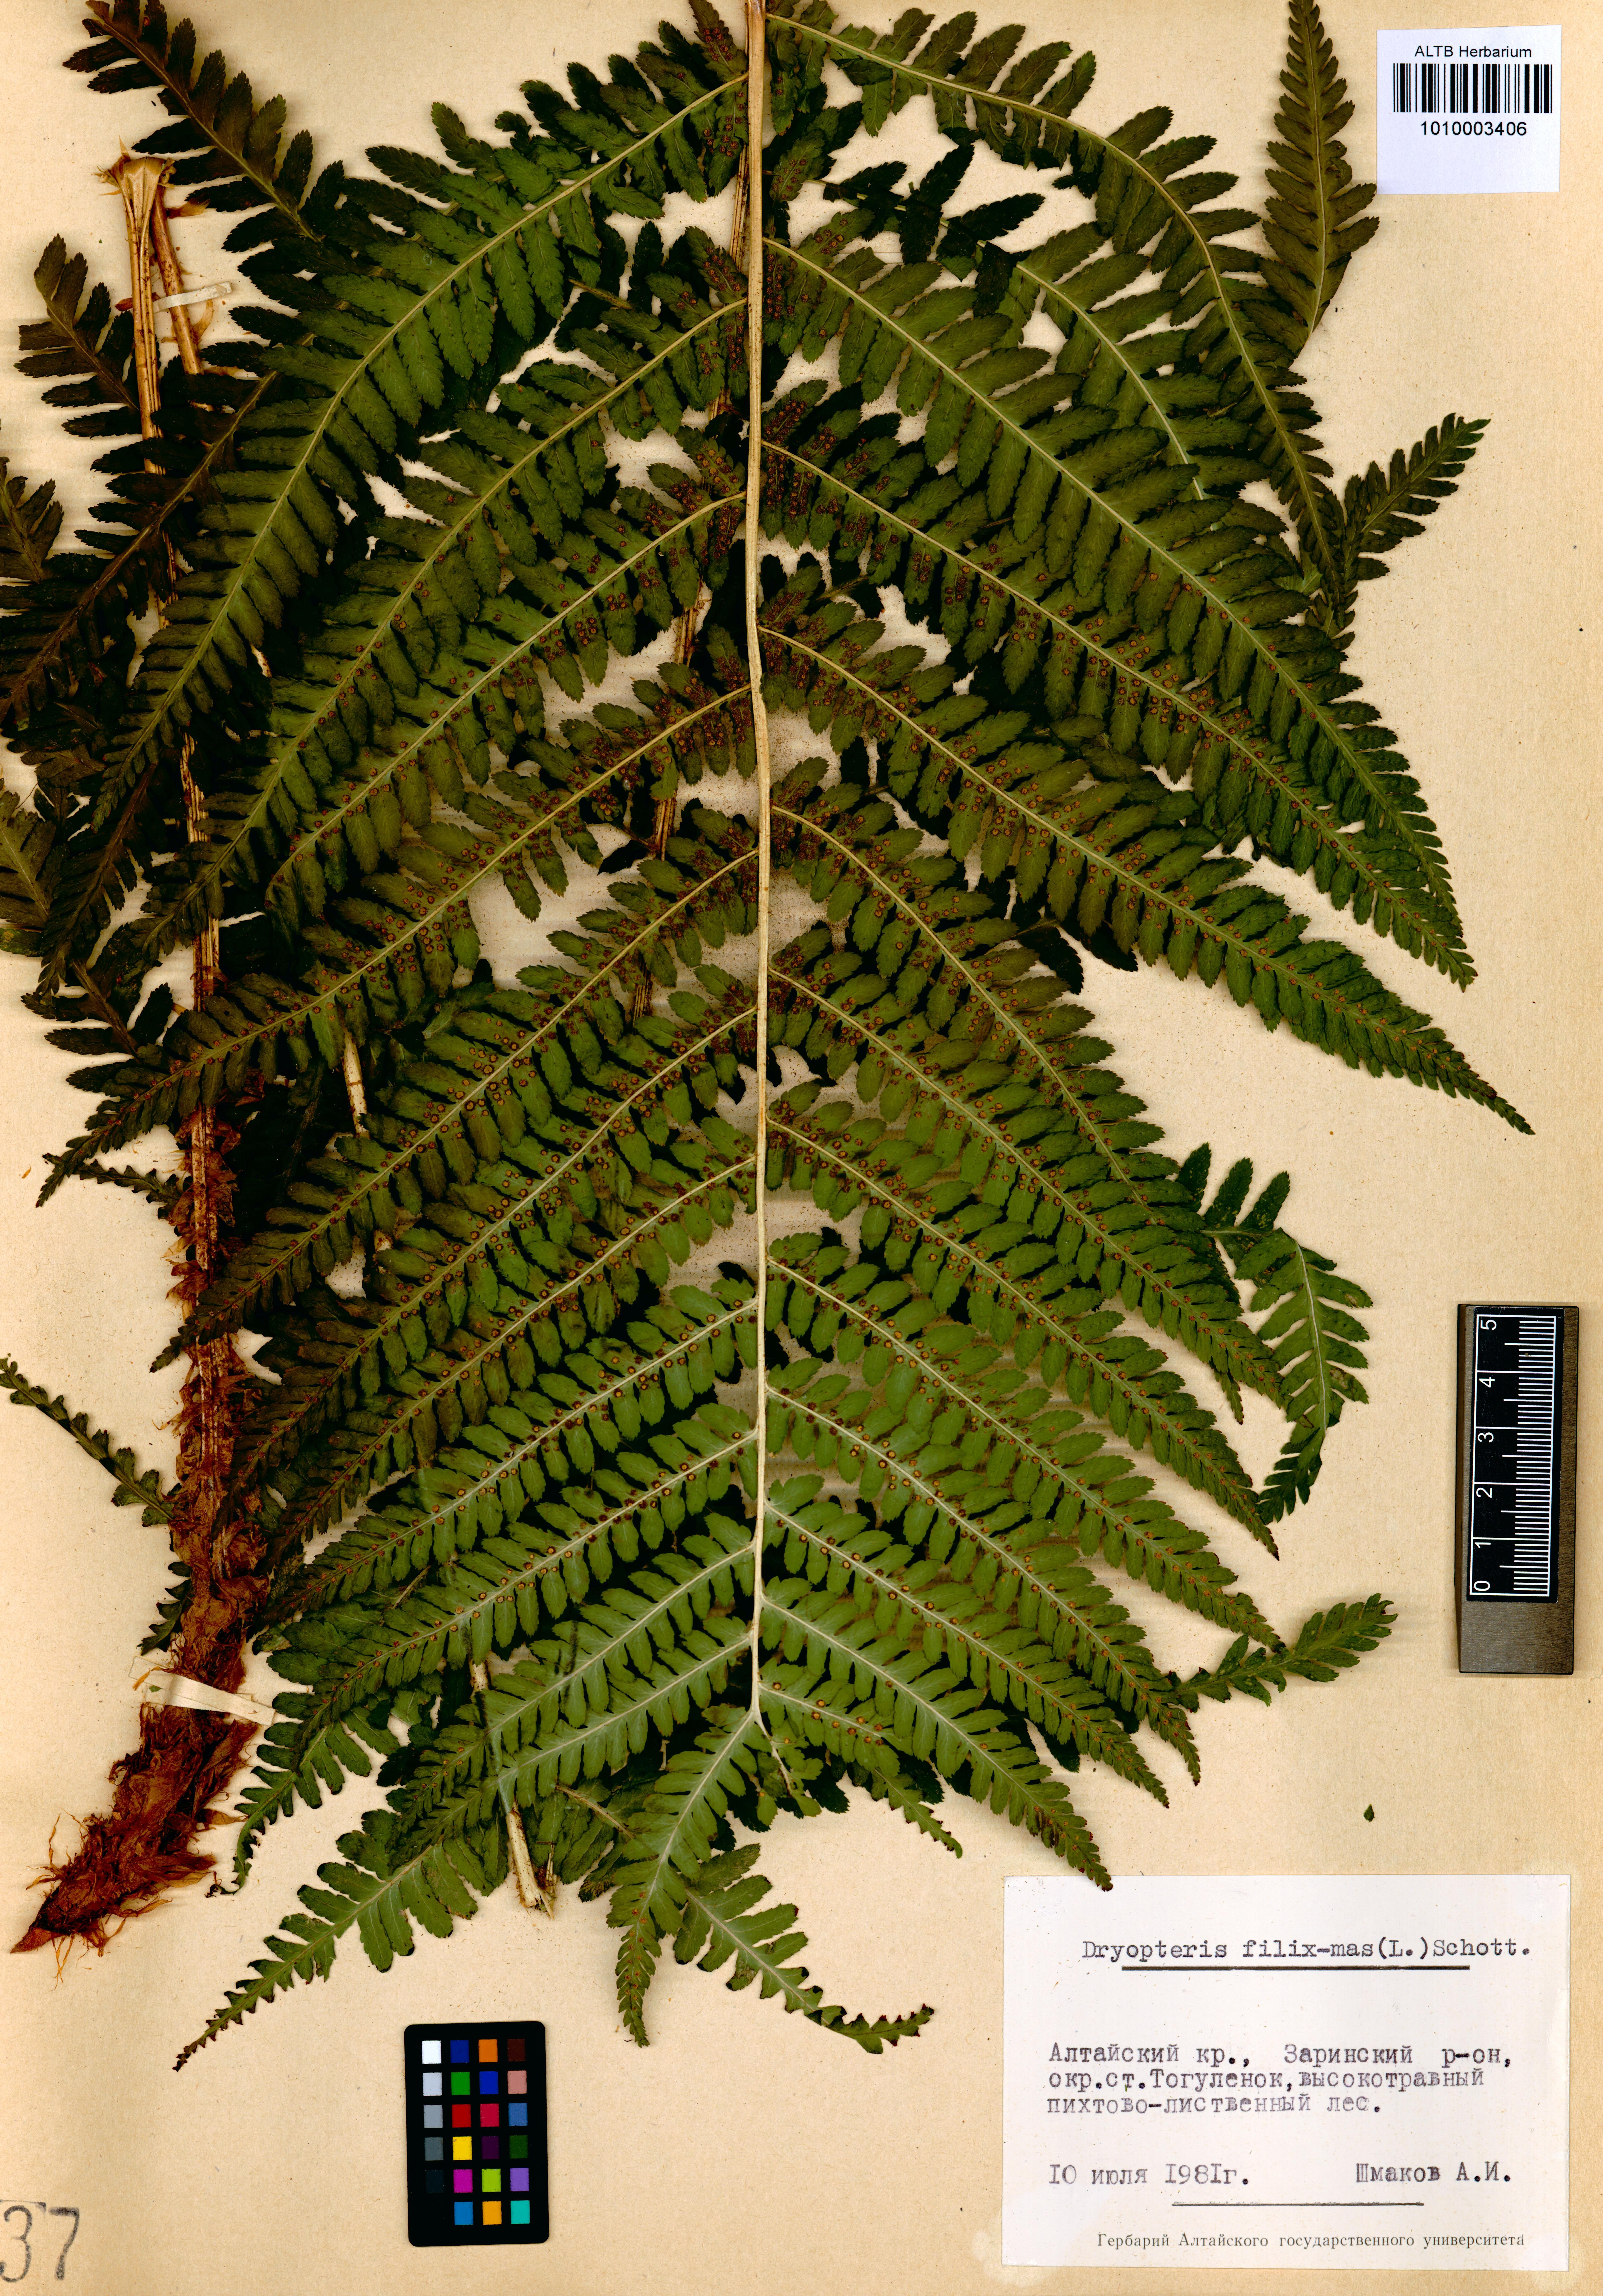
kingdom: Plantae
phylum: Tracheophyta
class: Polypodiopsida
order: Polypodiales
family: Dryopteridaceae
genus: Dryopteris
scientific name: Dryopteris filix-mas
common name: Male fern
